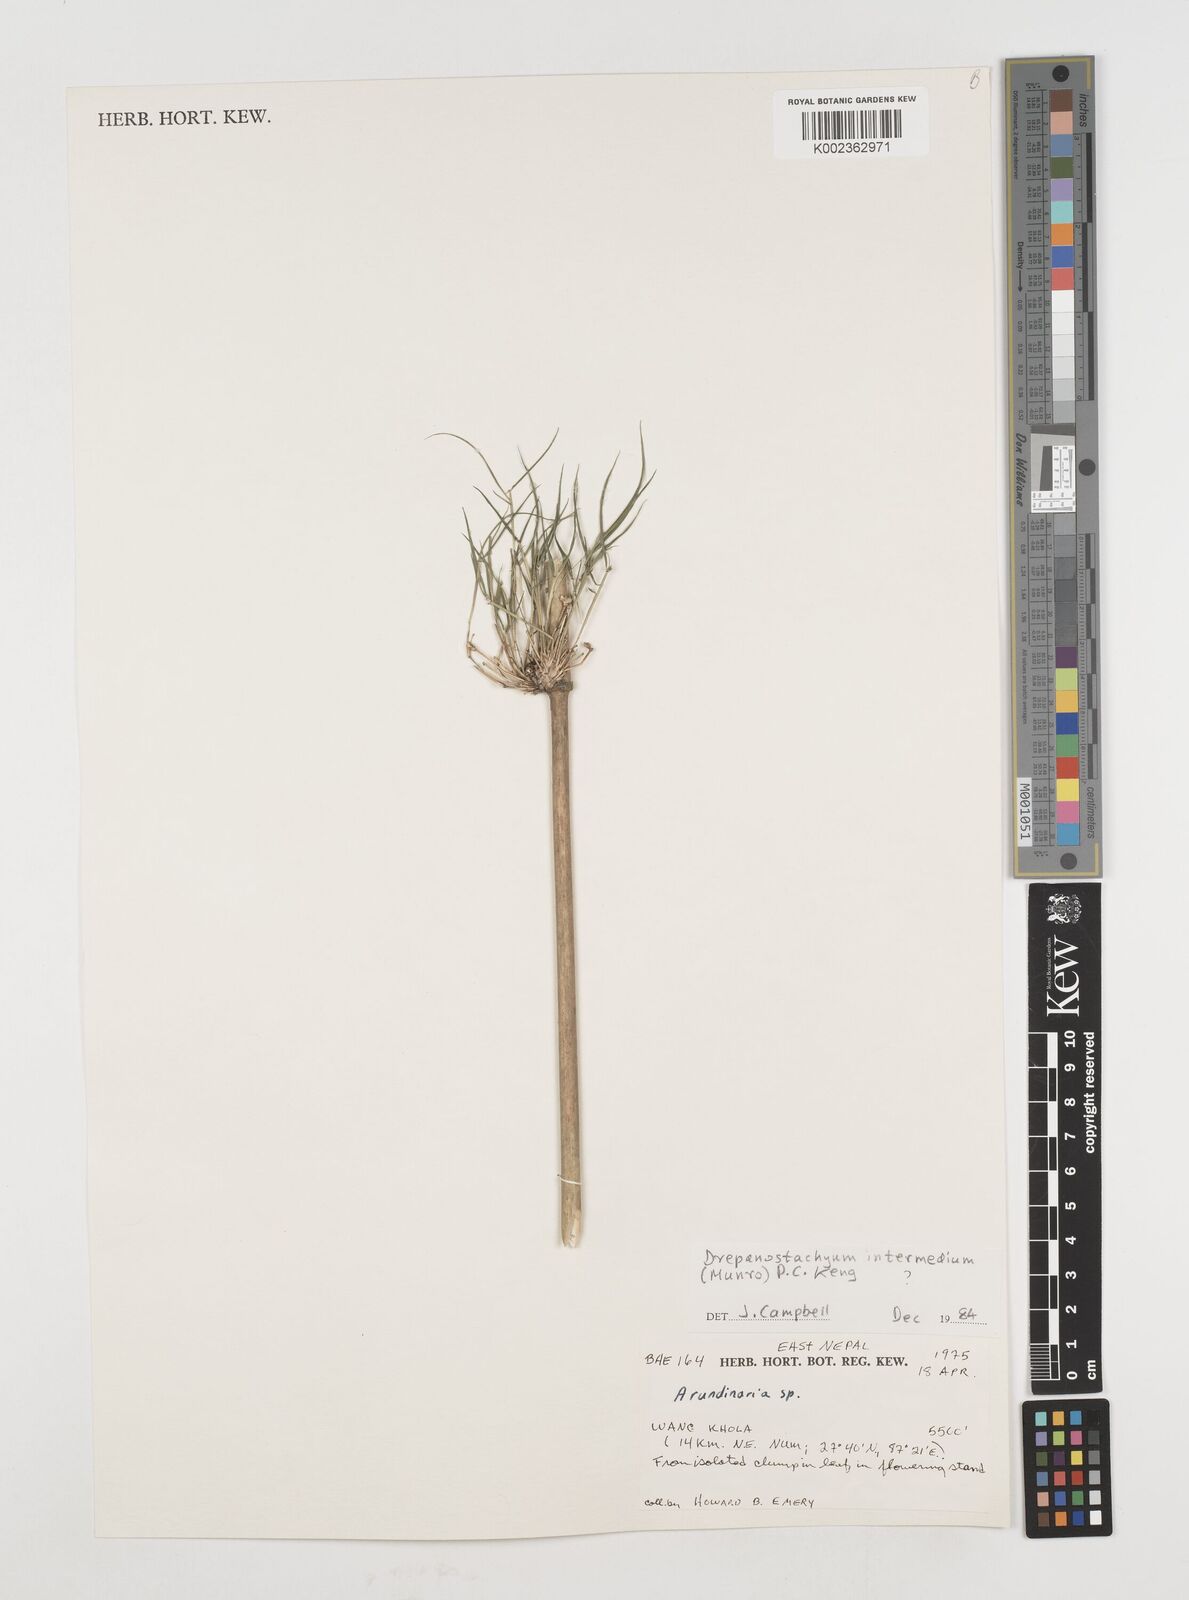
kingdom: Plantae
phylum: Tracheophyta
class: Liliopsida
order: Poales
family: Poaceae
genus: Drepanostachyum
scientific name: Drepanostachyum intermedium
